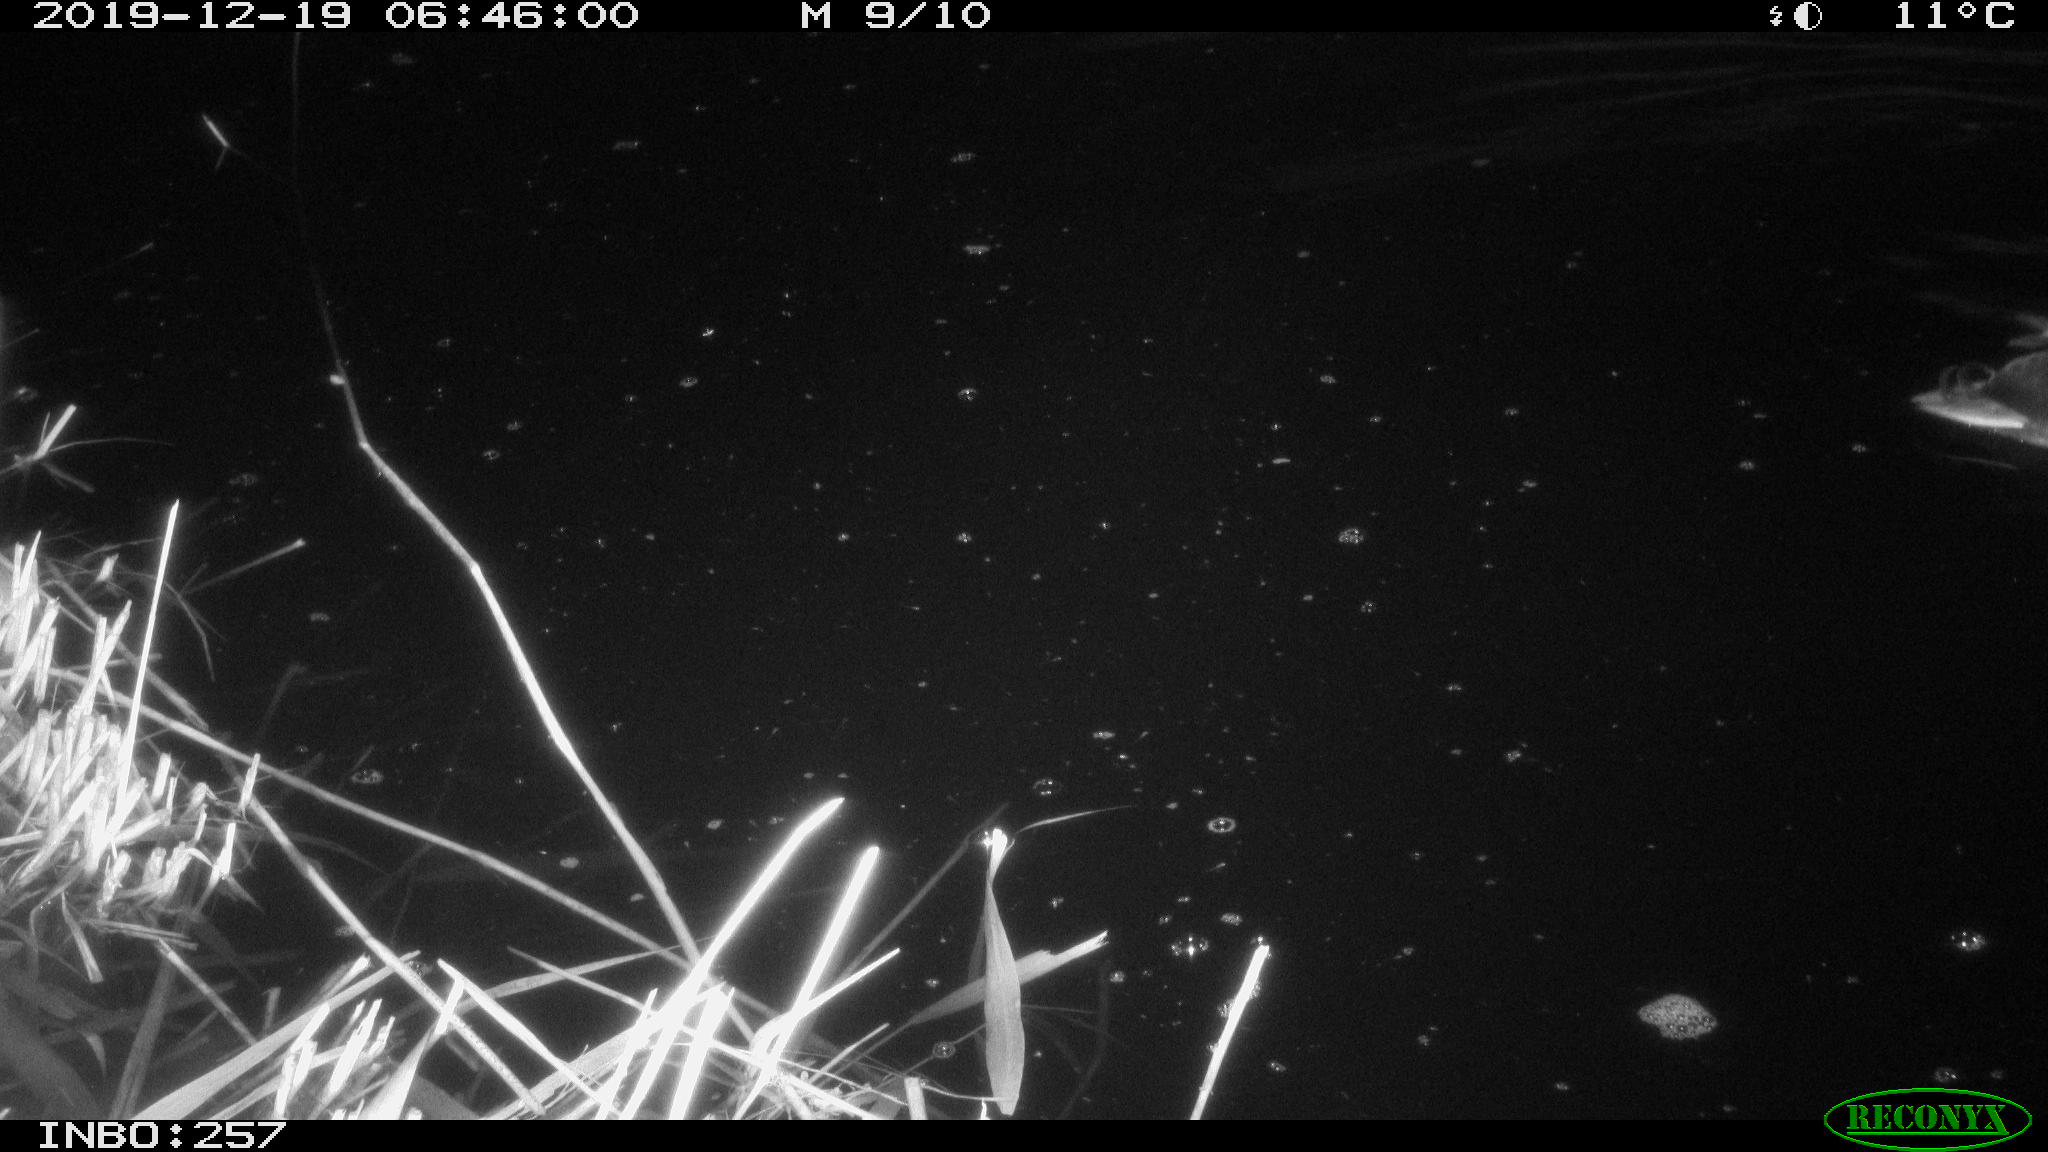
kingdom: Animalia
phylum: Chordata
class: Aves
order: Anseriformes
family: Anatidae
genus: Anas
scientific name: Anas platyrhynchos
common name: Mallard
